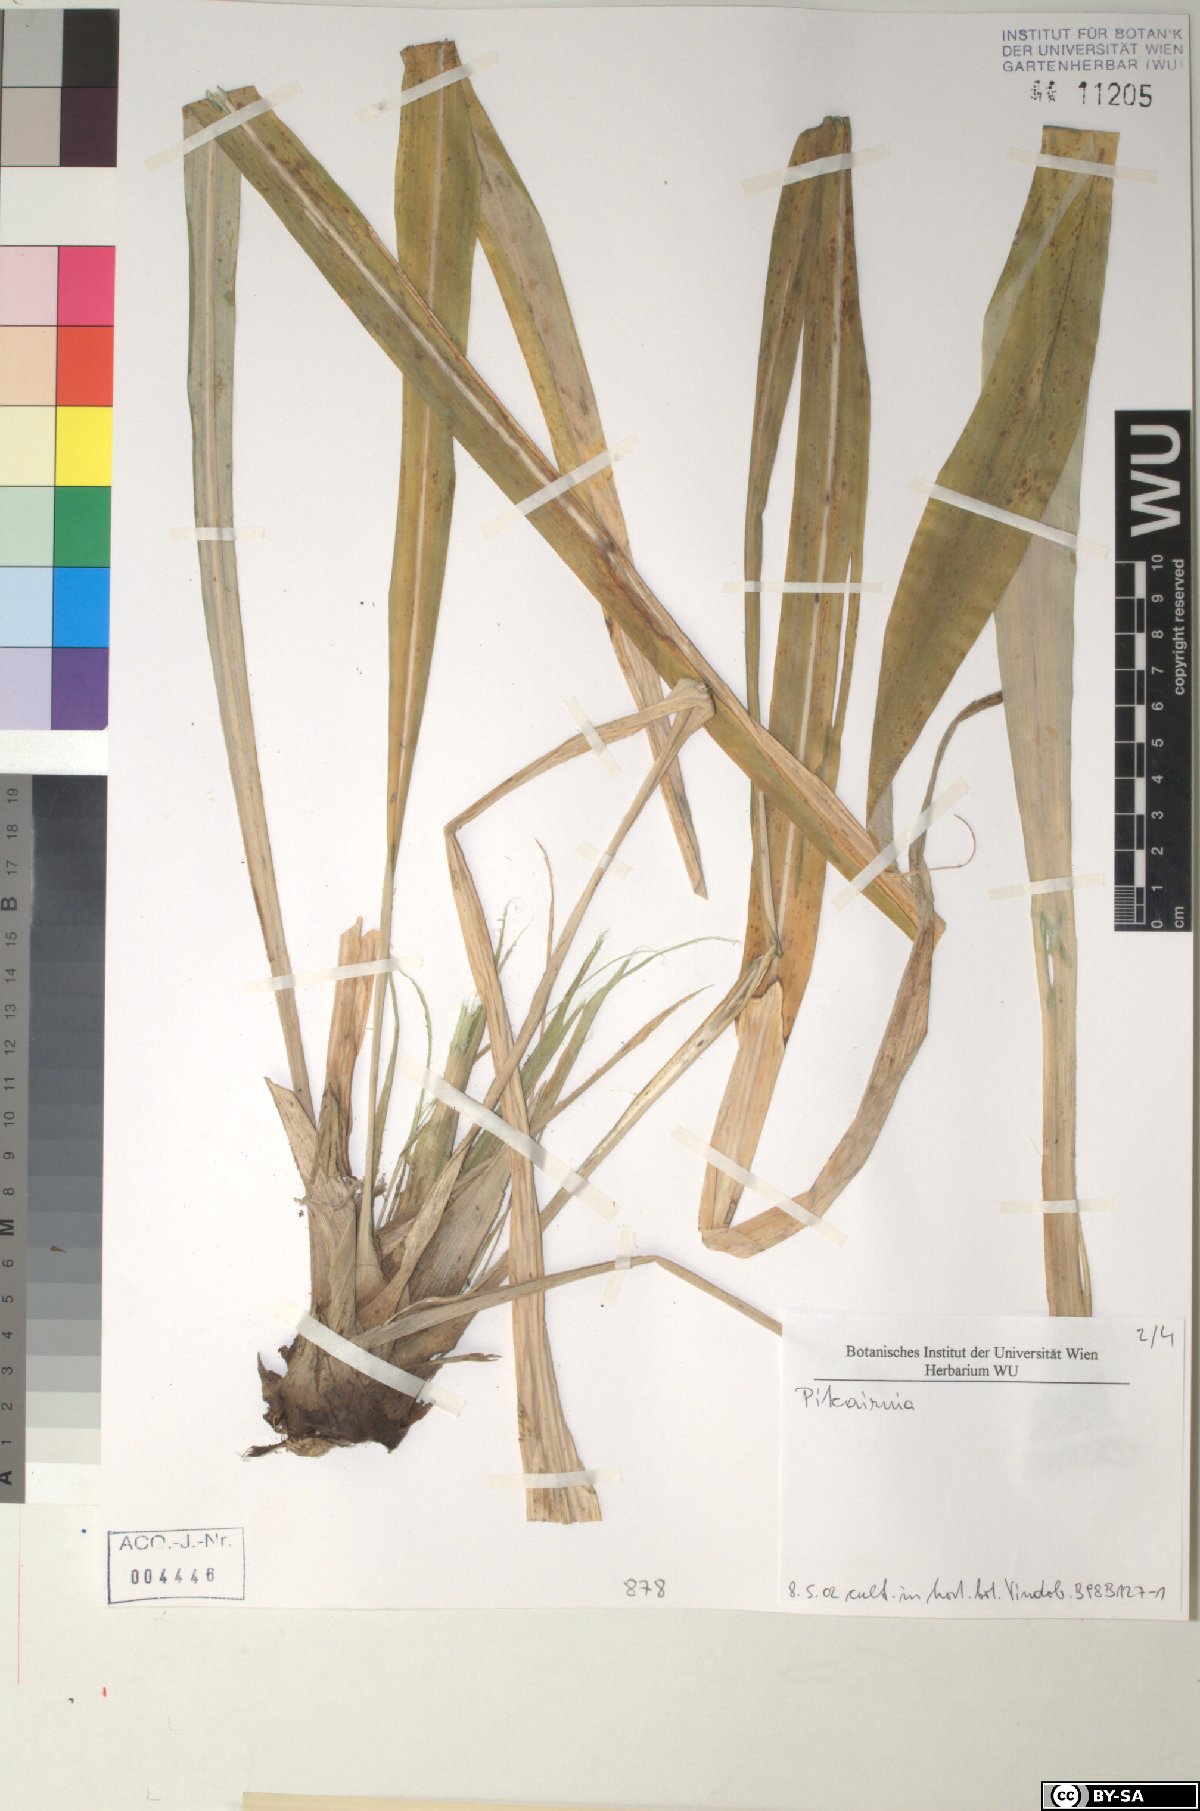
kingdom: Plantae
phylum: Tracheophyta
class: Liliopsida
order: Poales
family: Bromeliaceae
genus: Pitcairnia
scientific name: Pitcairnia
